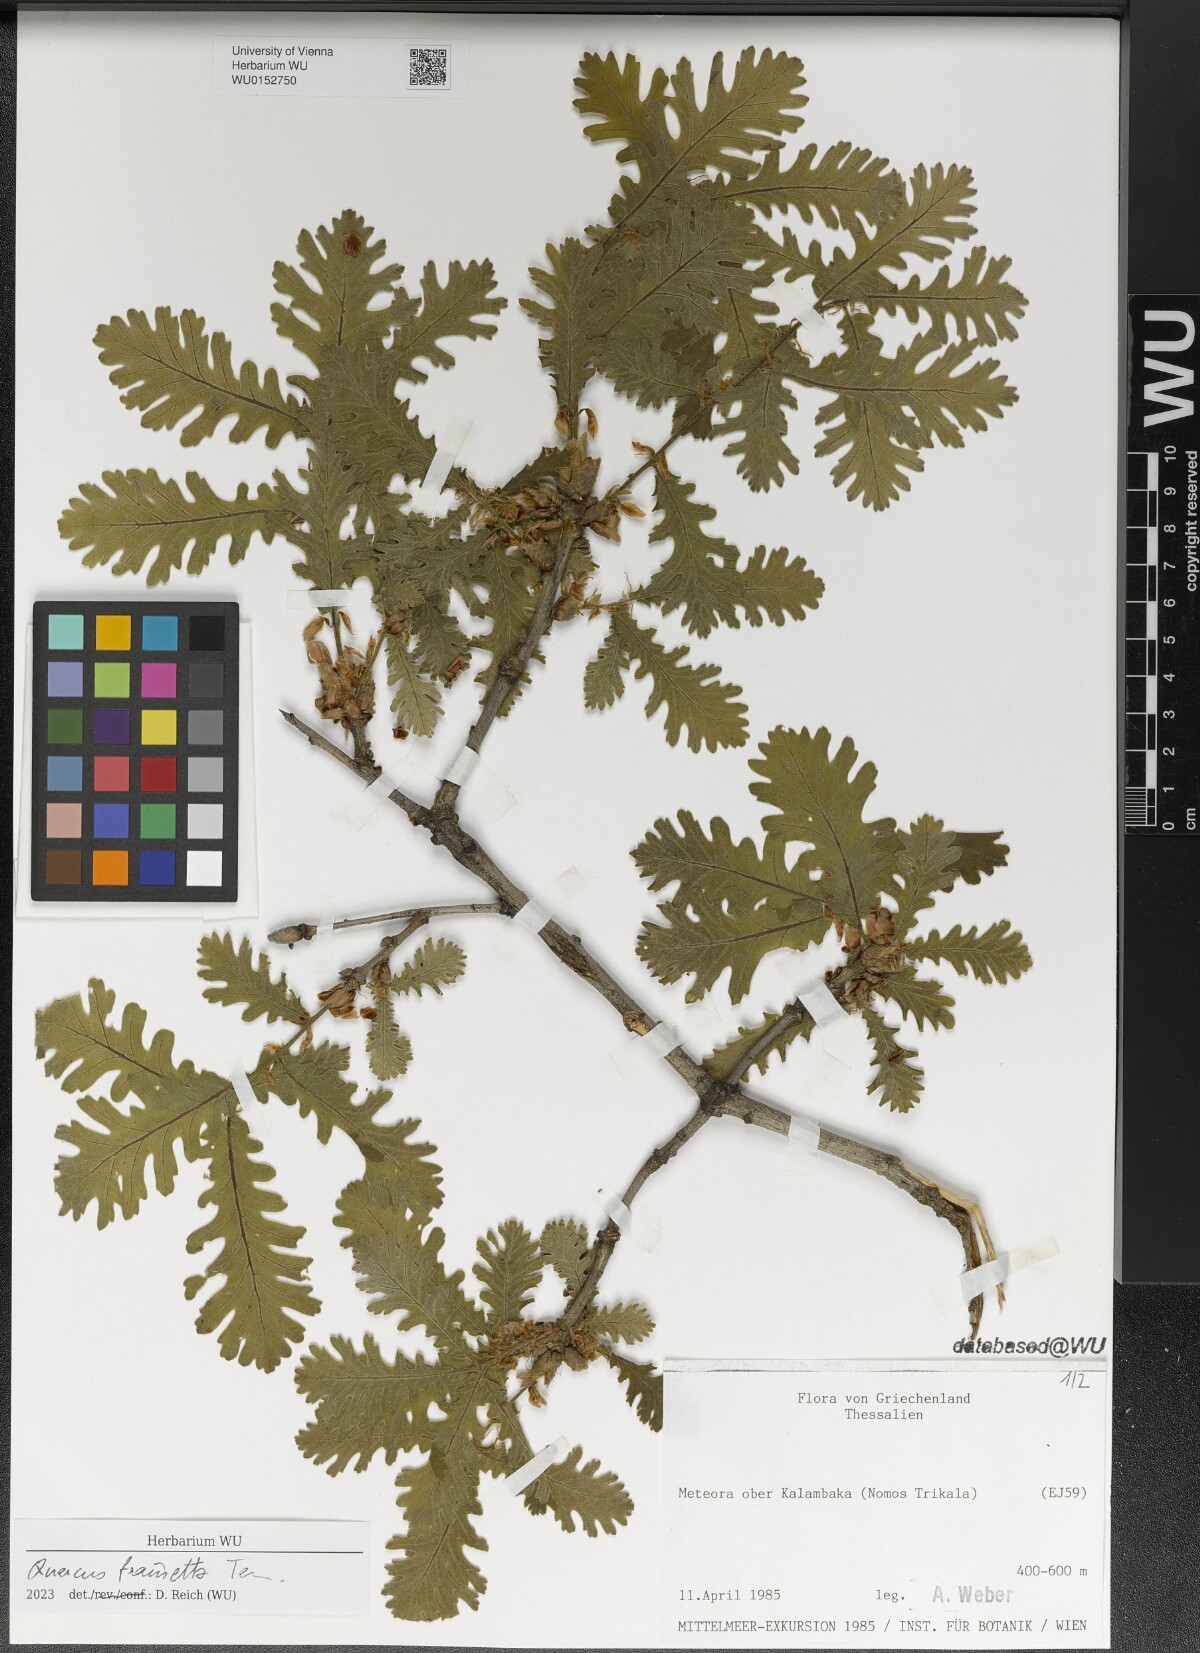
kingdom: Plantae
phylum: Tracheophyta
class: Magnoliopsida
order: Fagales
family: Fagaceae
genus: Quercus
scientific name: Quercus conferta
